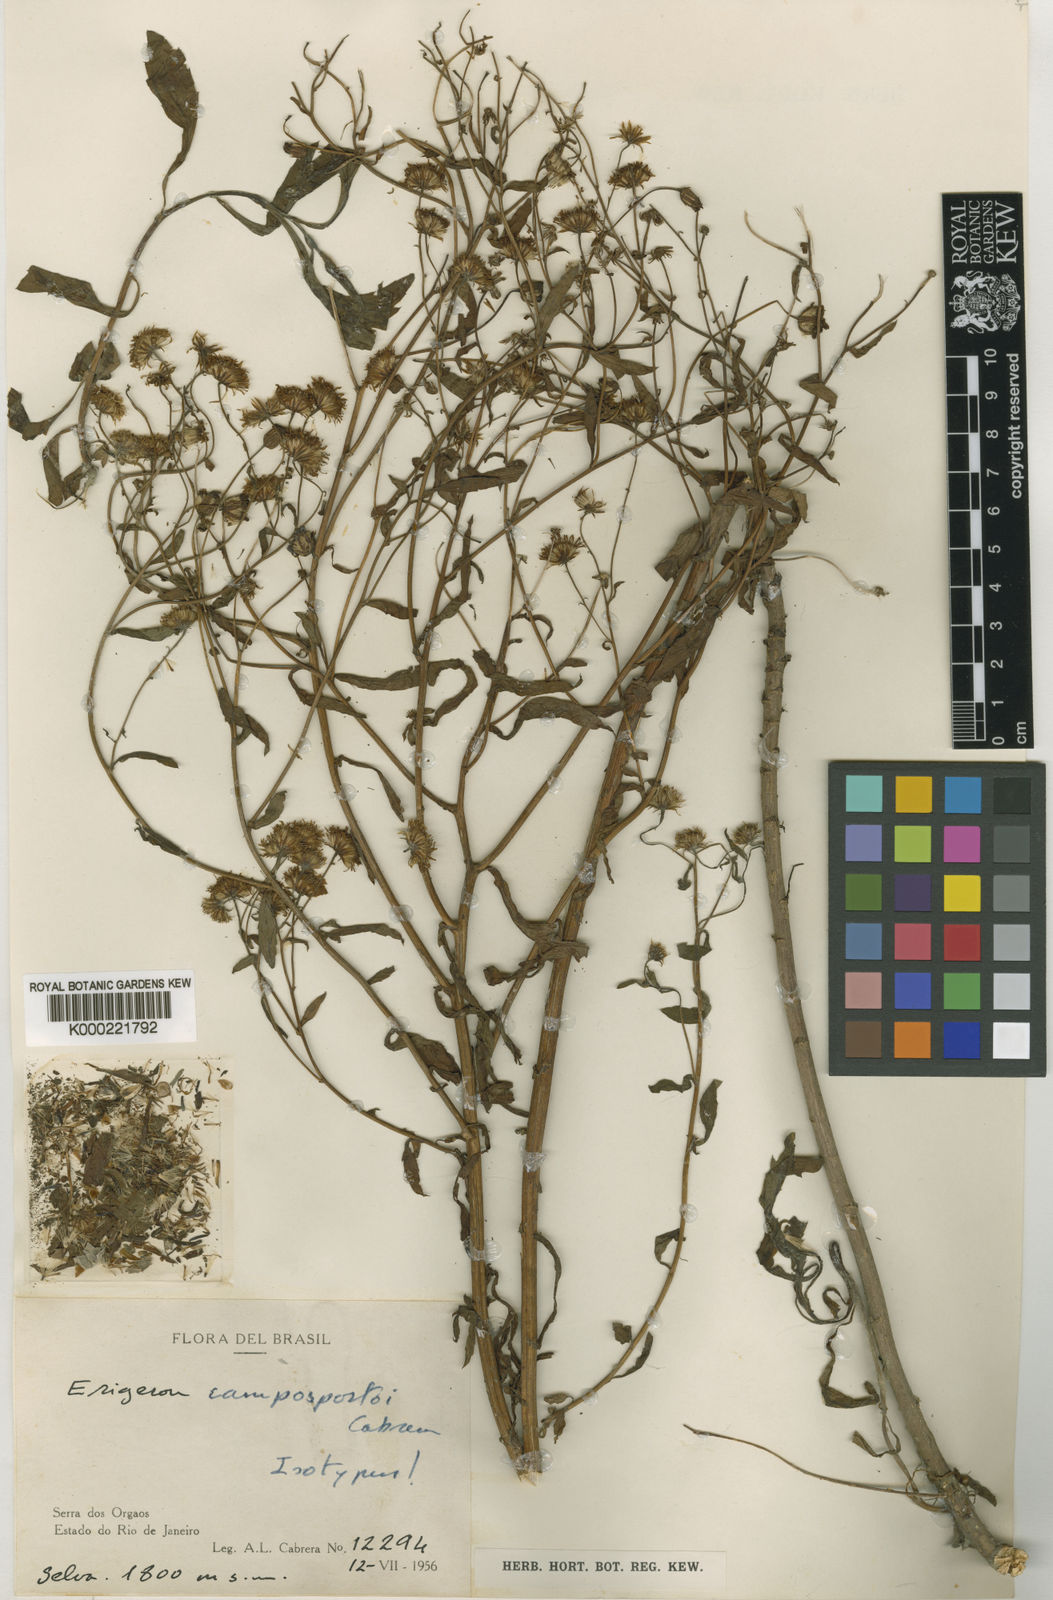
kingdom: Plantae
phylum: Tracheophyta
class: Magnoliopsida
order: Asterales
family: Asteraceae
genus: Leptostelma
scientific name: Leptostelma camposportoi
